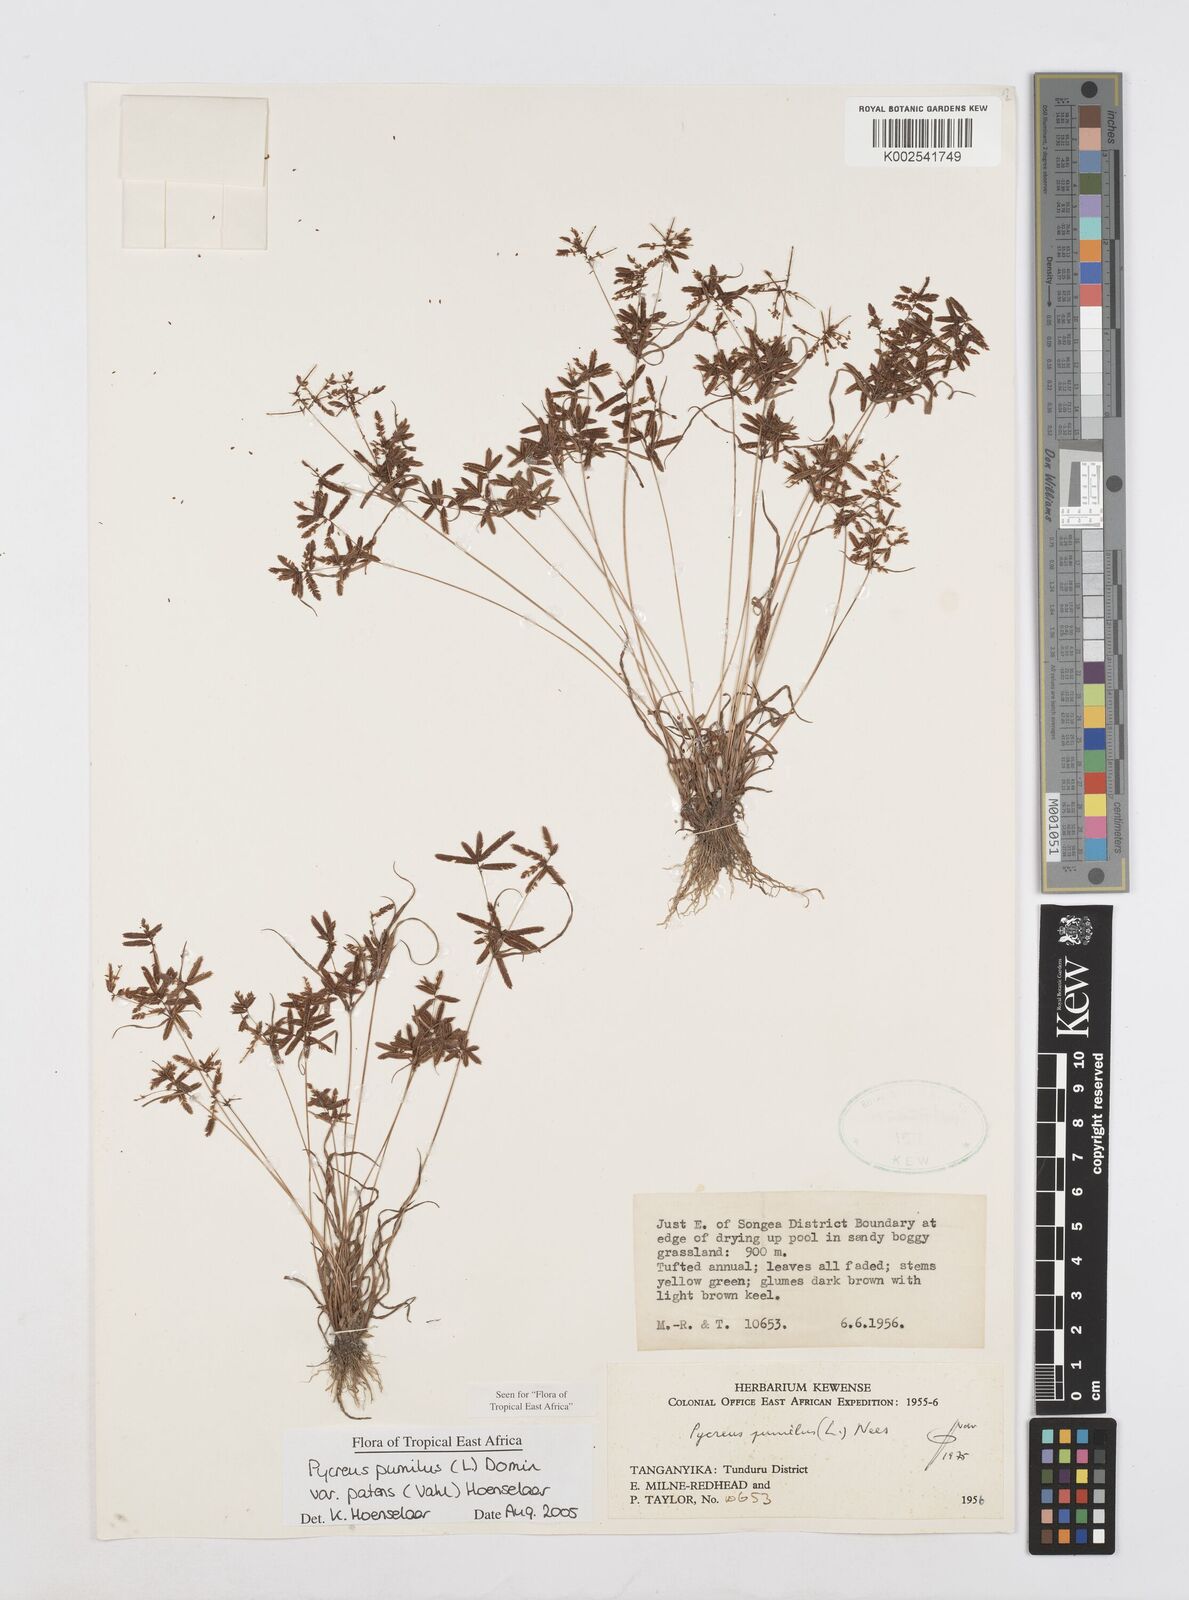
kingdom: Plantae
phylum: Tracheophyta
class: Liliopsida
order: Poales
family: Cyperaceae
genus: Cyperus
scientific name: Cyperus pumilus
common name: Low flatsedge
